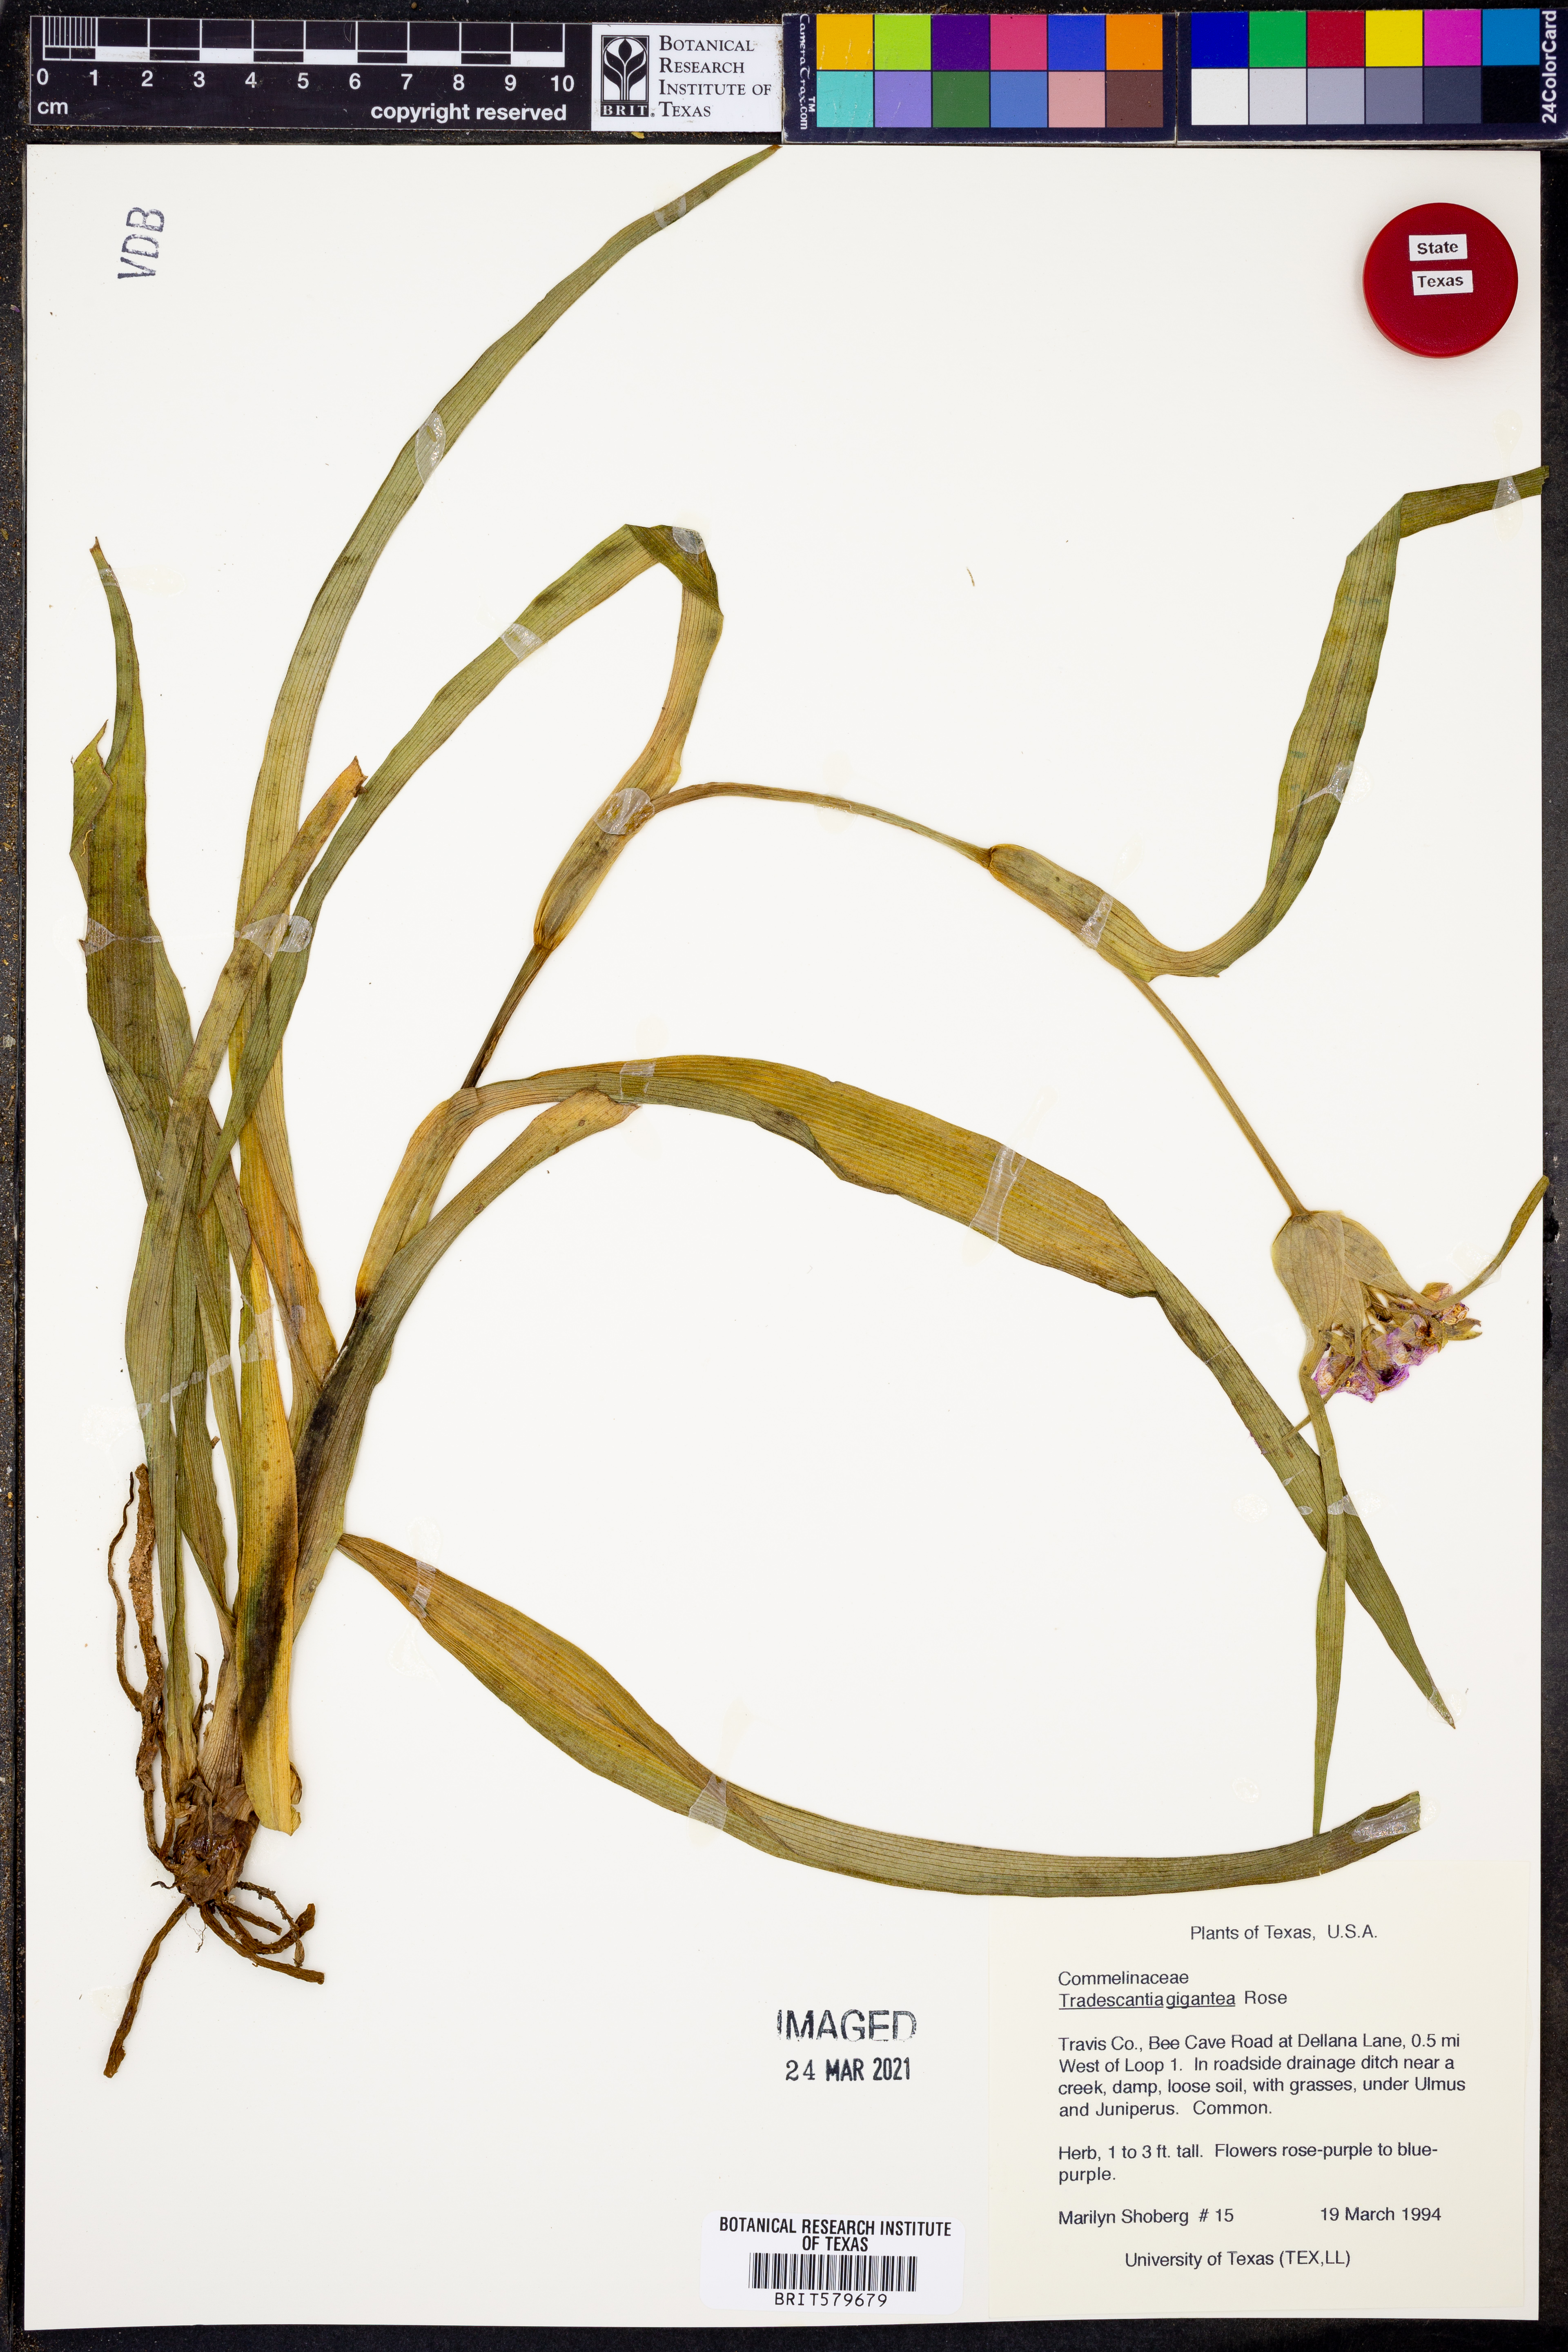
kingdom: Plantae
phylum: Tracheophyta
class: Liliopsida
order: Commelinales
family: Commelinaceae
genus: Tradescantia
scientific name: Tradescantia gigantea
